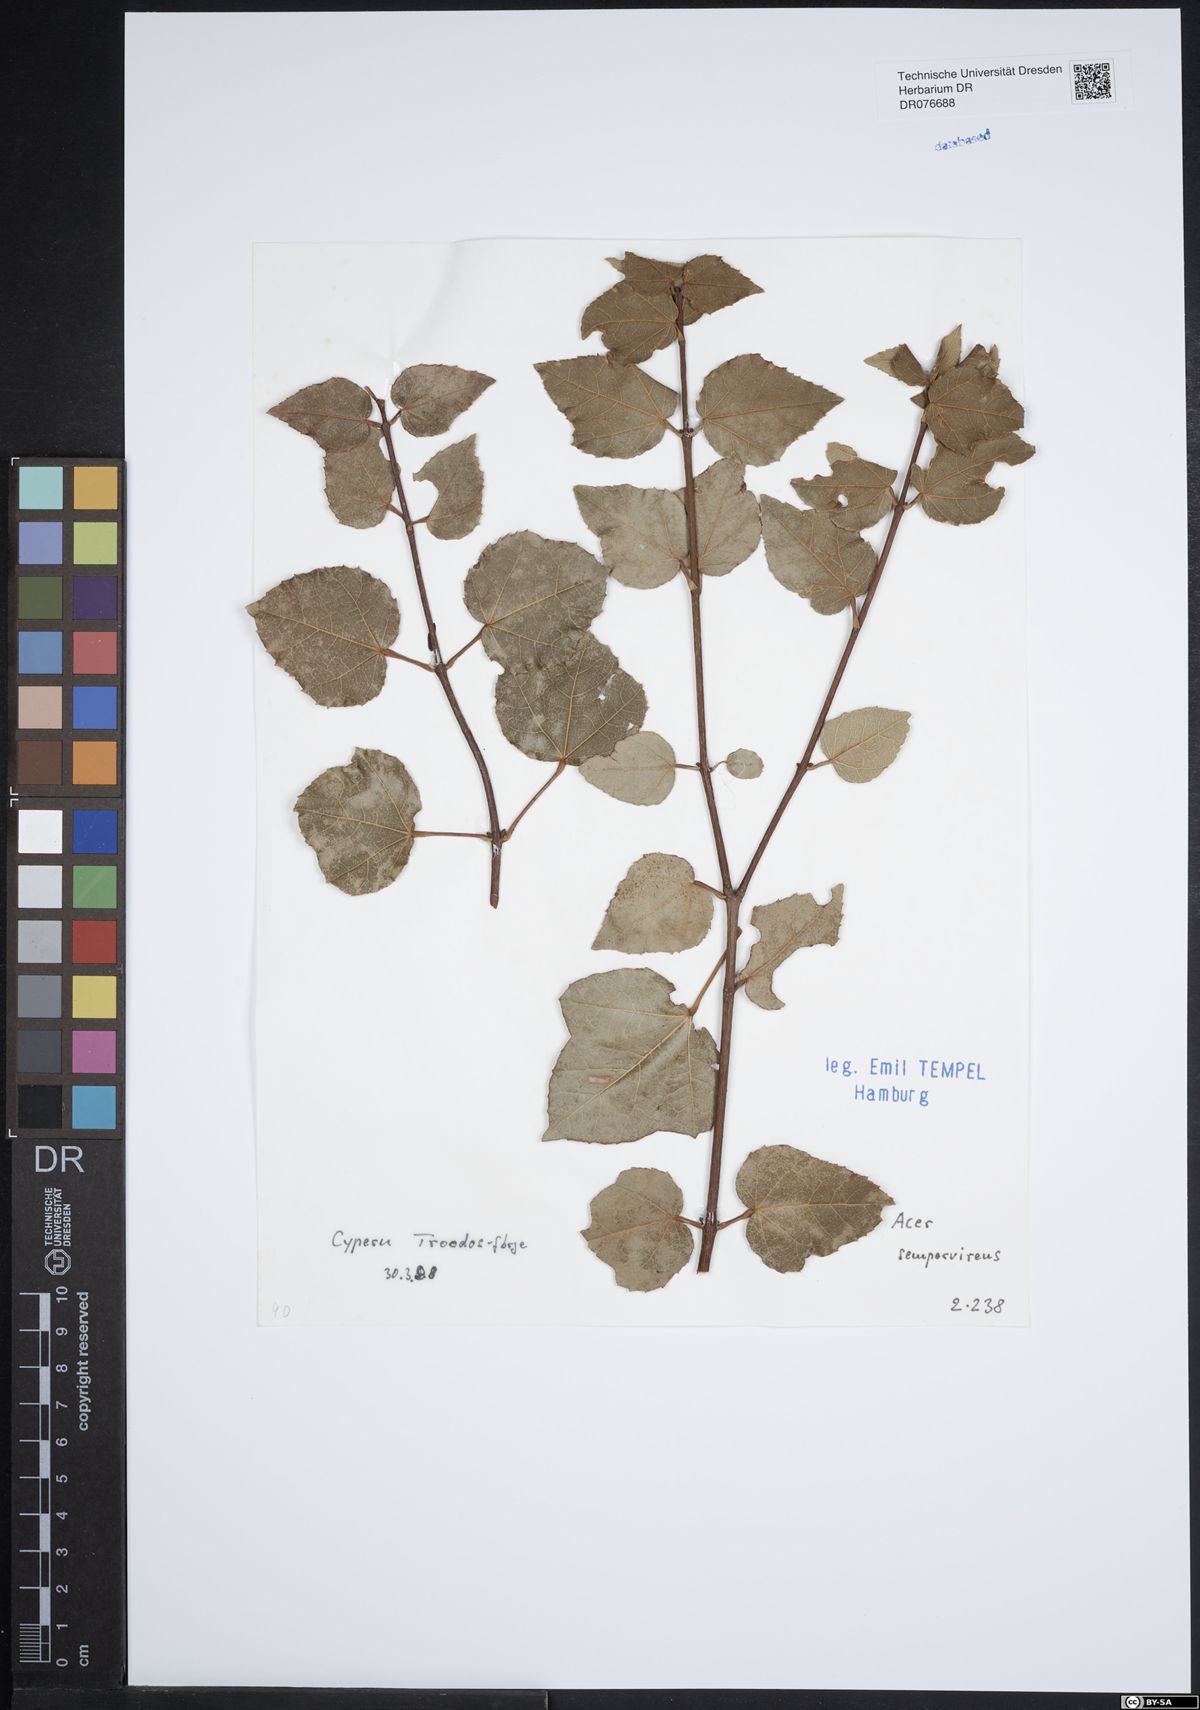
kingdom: Plantae
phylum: Tracheophyta
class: Magnoliopsida
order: Sapindales
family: Sapindaceae
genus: Acer
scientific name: Acer sempervirens
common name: Cretan maple
